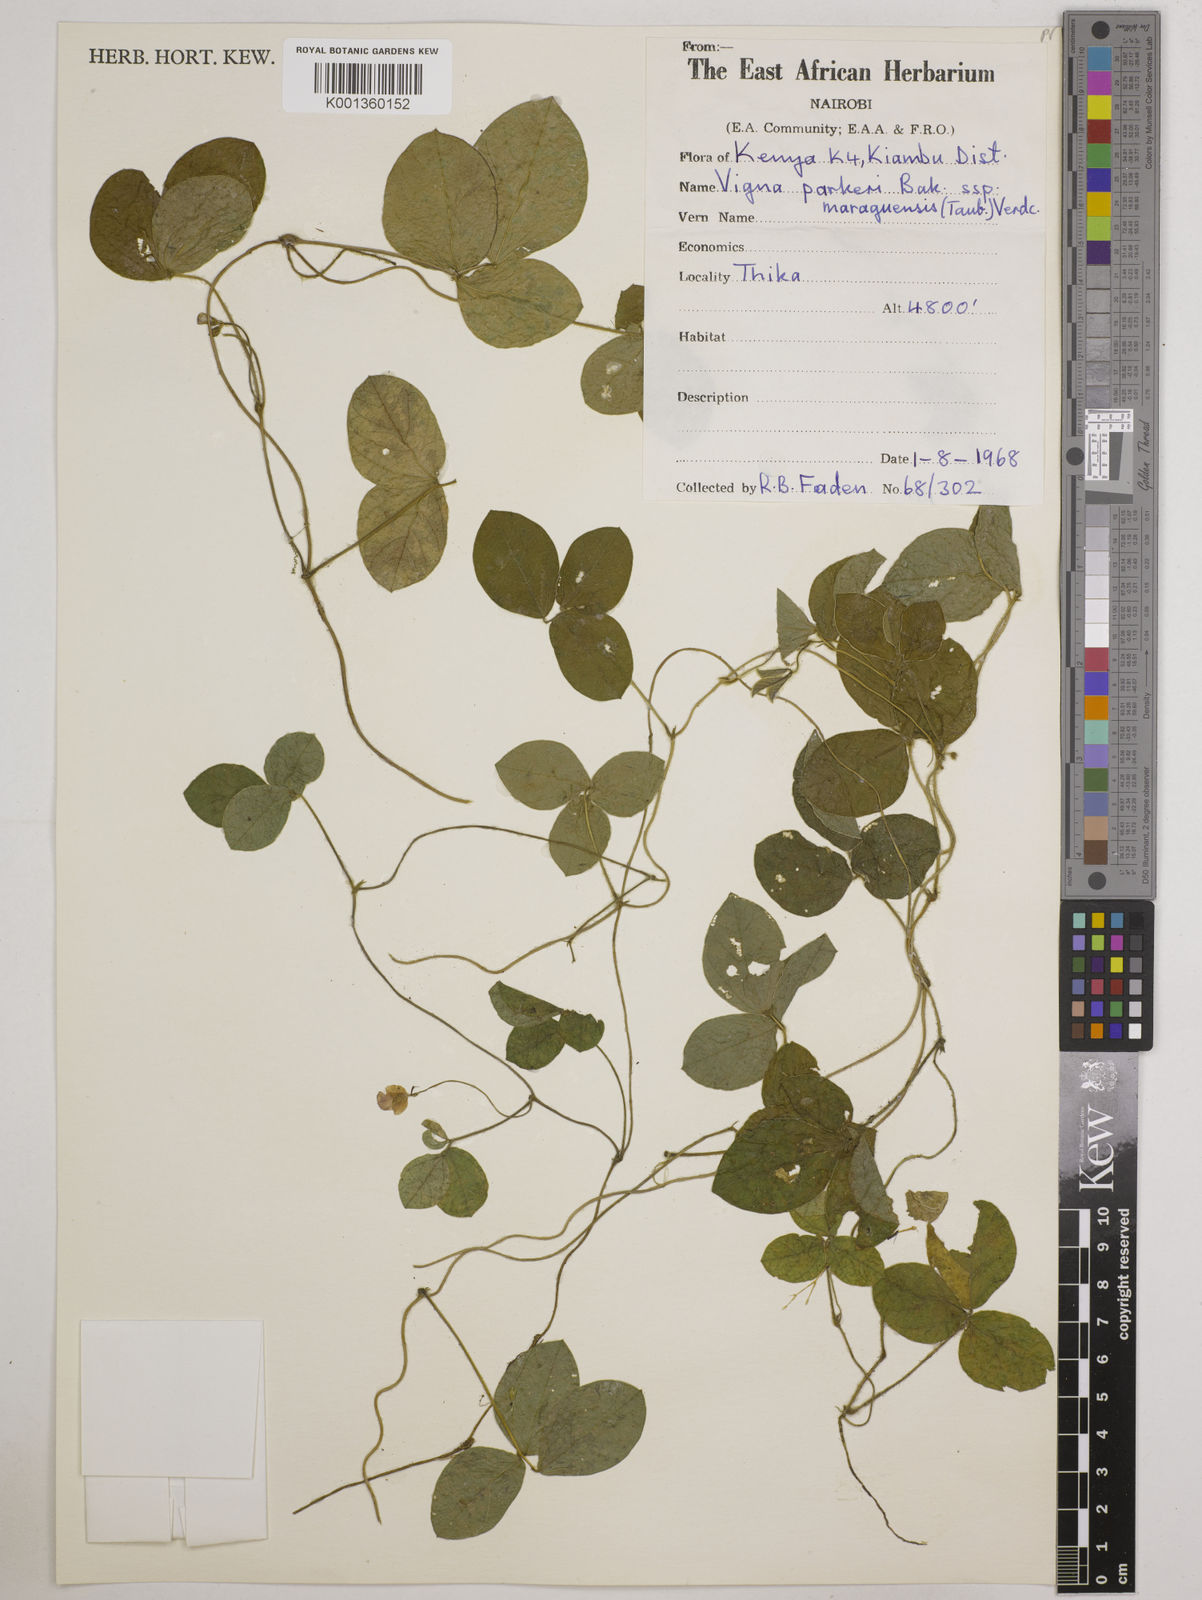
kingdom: Plantae
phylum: Tracheophyta
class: Magnoliopsida
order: Fabales
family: Fabaceae
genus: Vigna
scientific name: Vigna
